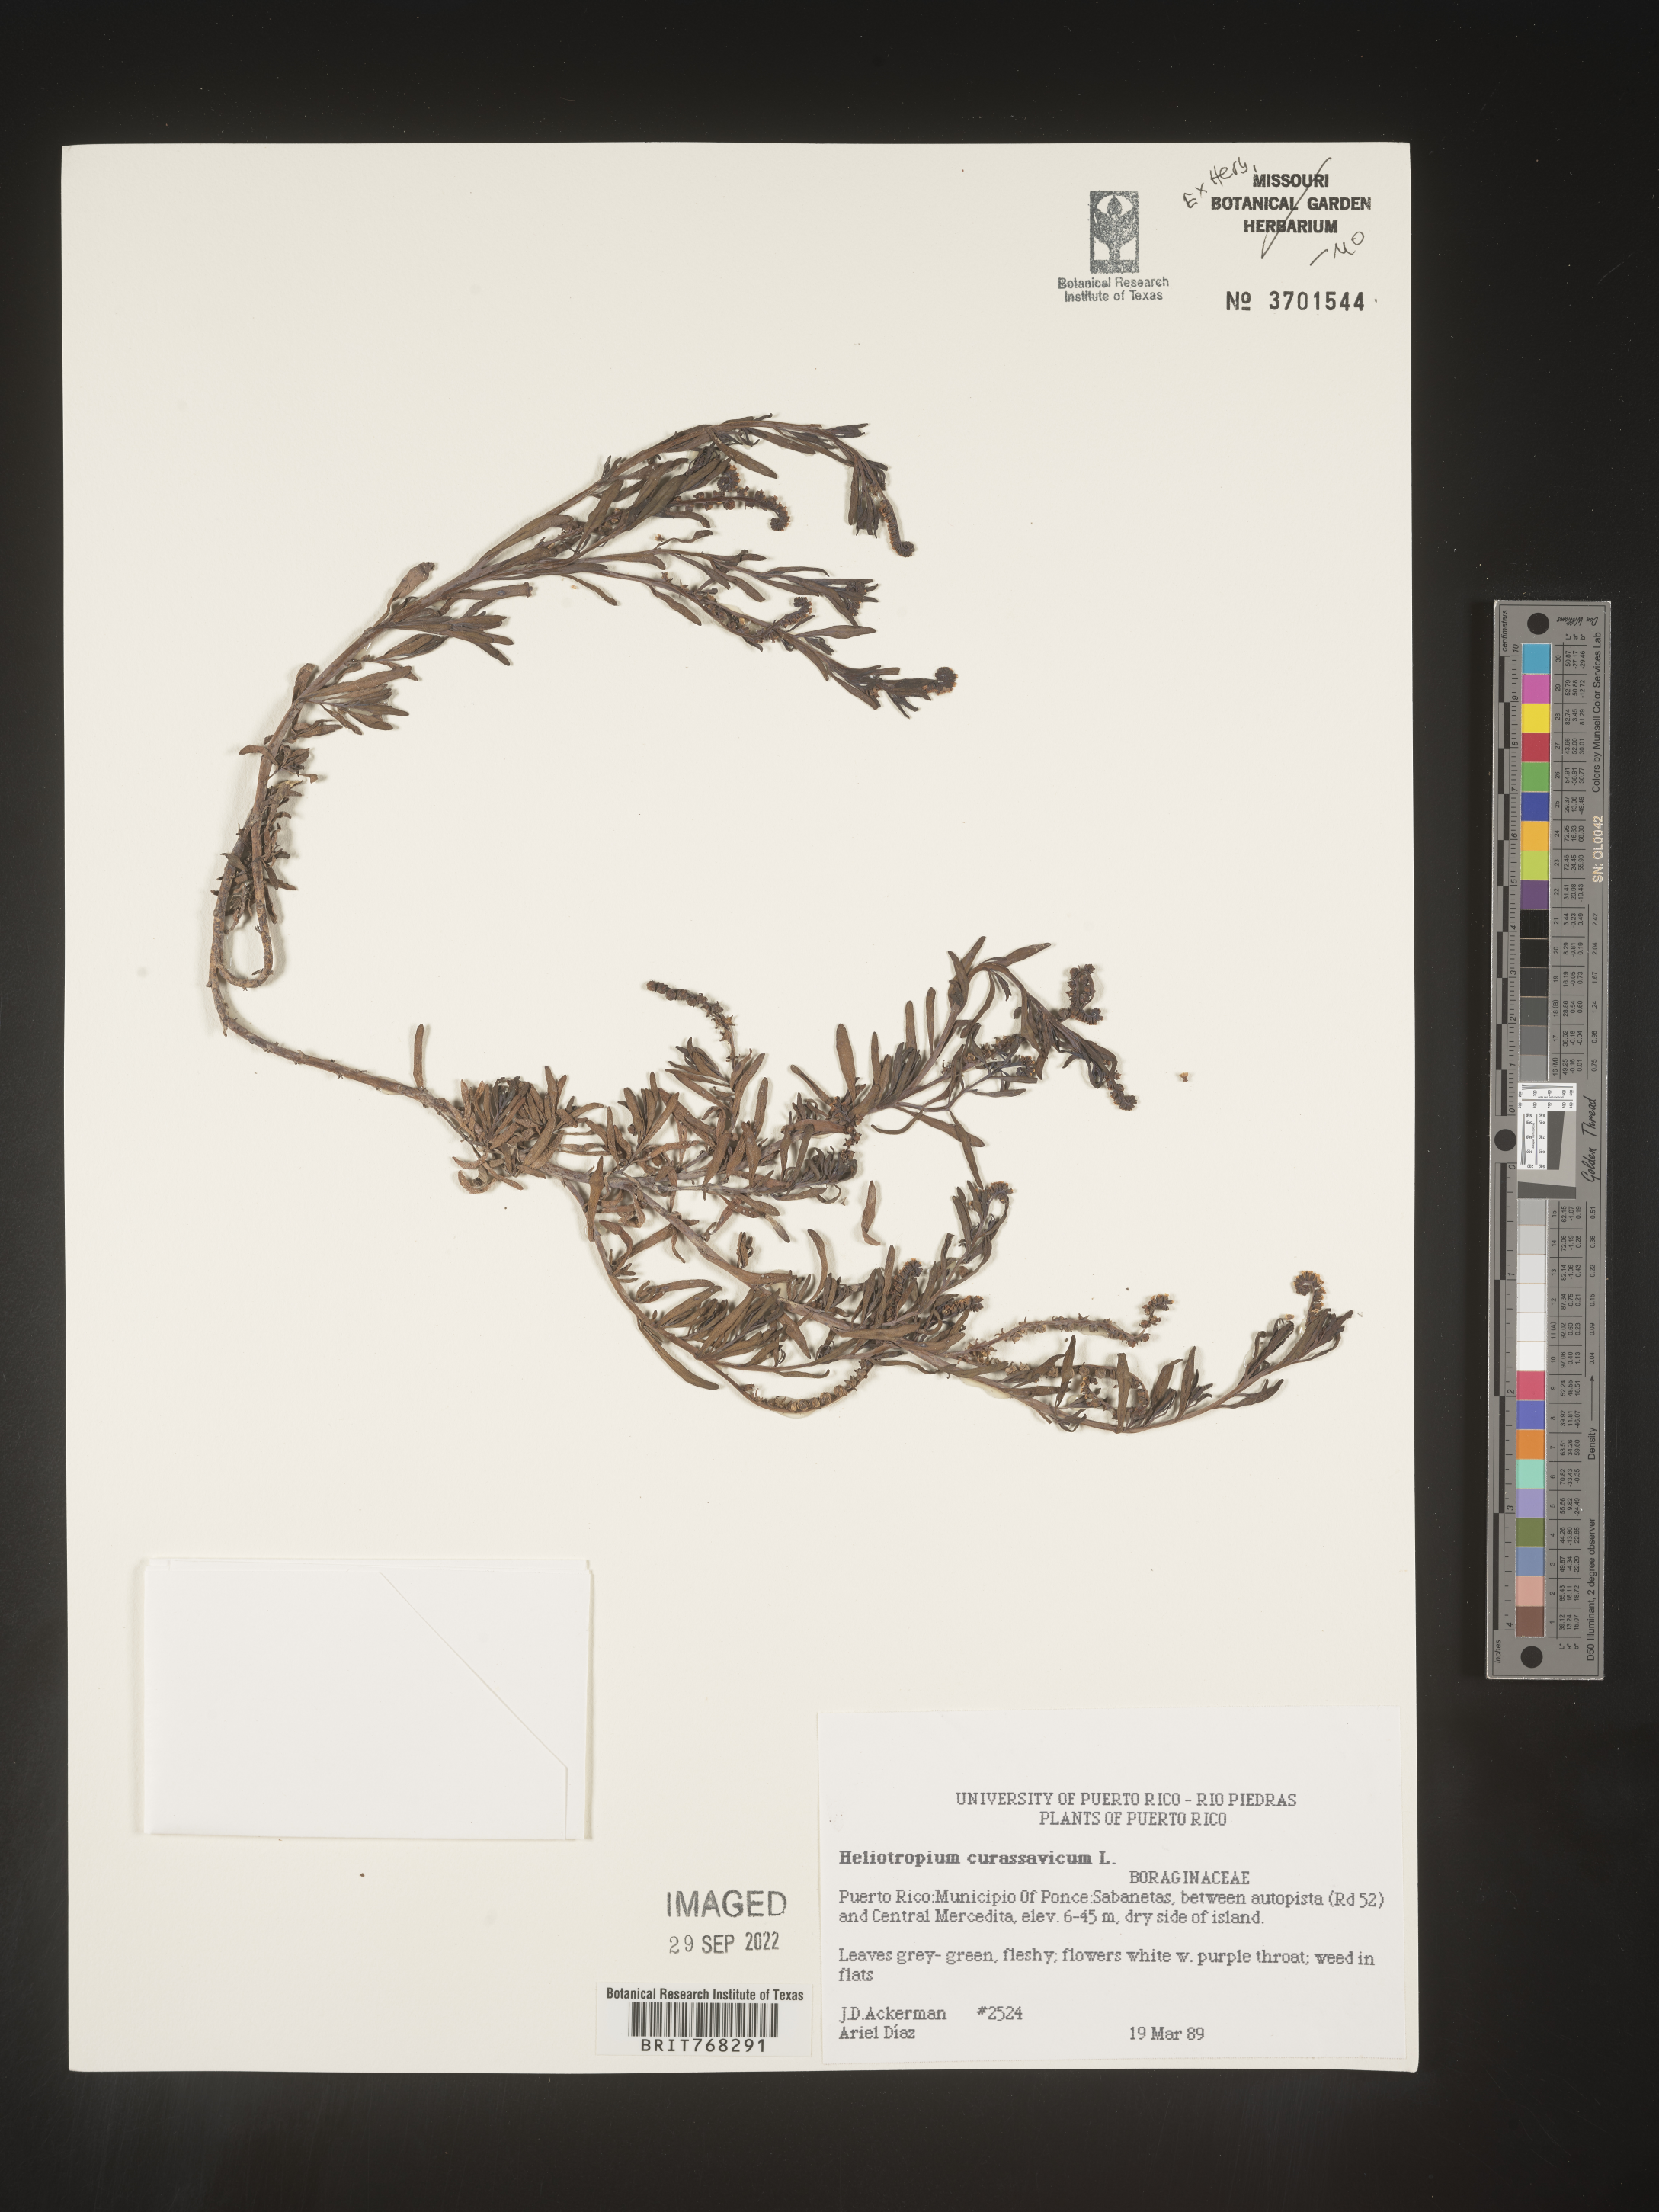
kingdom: Plantae
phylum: Tracheophyta
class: Magnoliopsida
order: Boraginales
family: Heliotropiaceae
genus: Heliotropium
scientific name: Heliotropium
